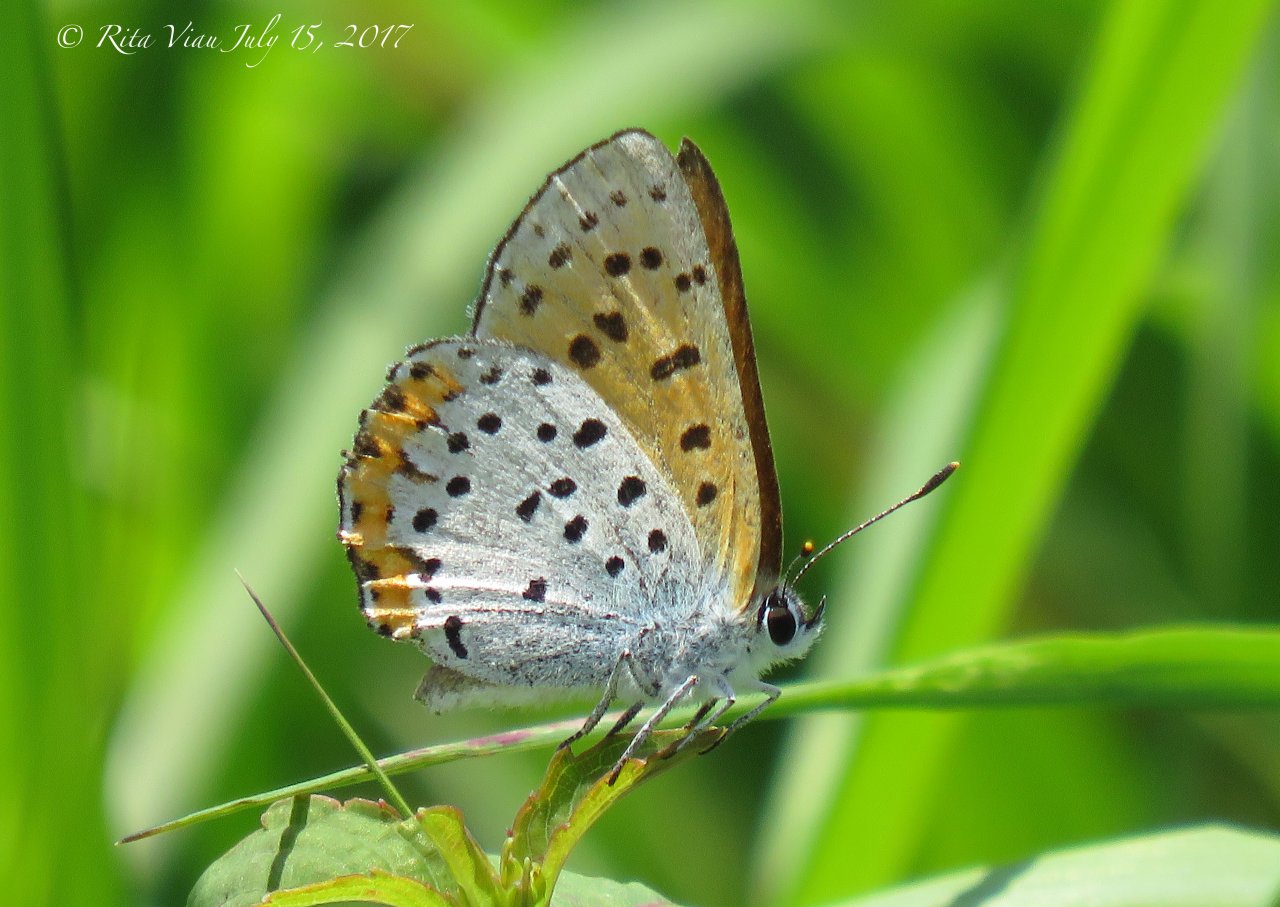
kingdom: Animalia
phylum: Arthropoda
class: Insecta
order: Lepidoptera
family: Sesiidae
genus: Sesia
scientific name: Sesia Lycaena hyllus
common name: Bronze Copper
